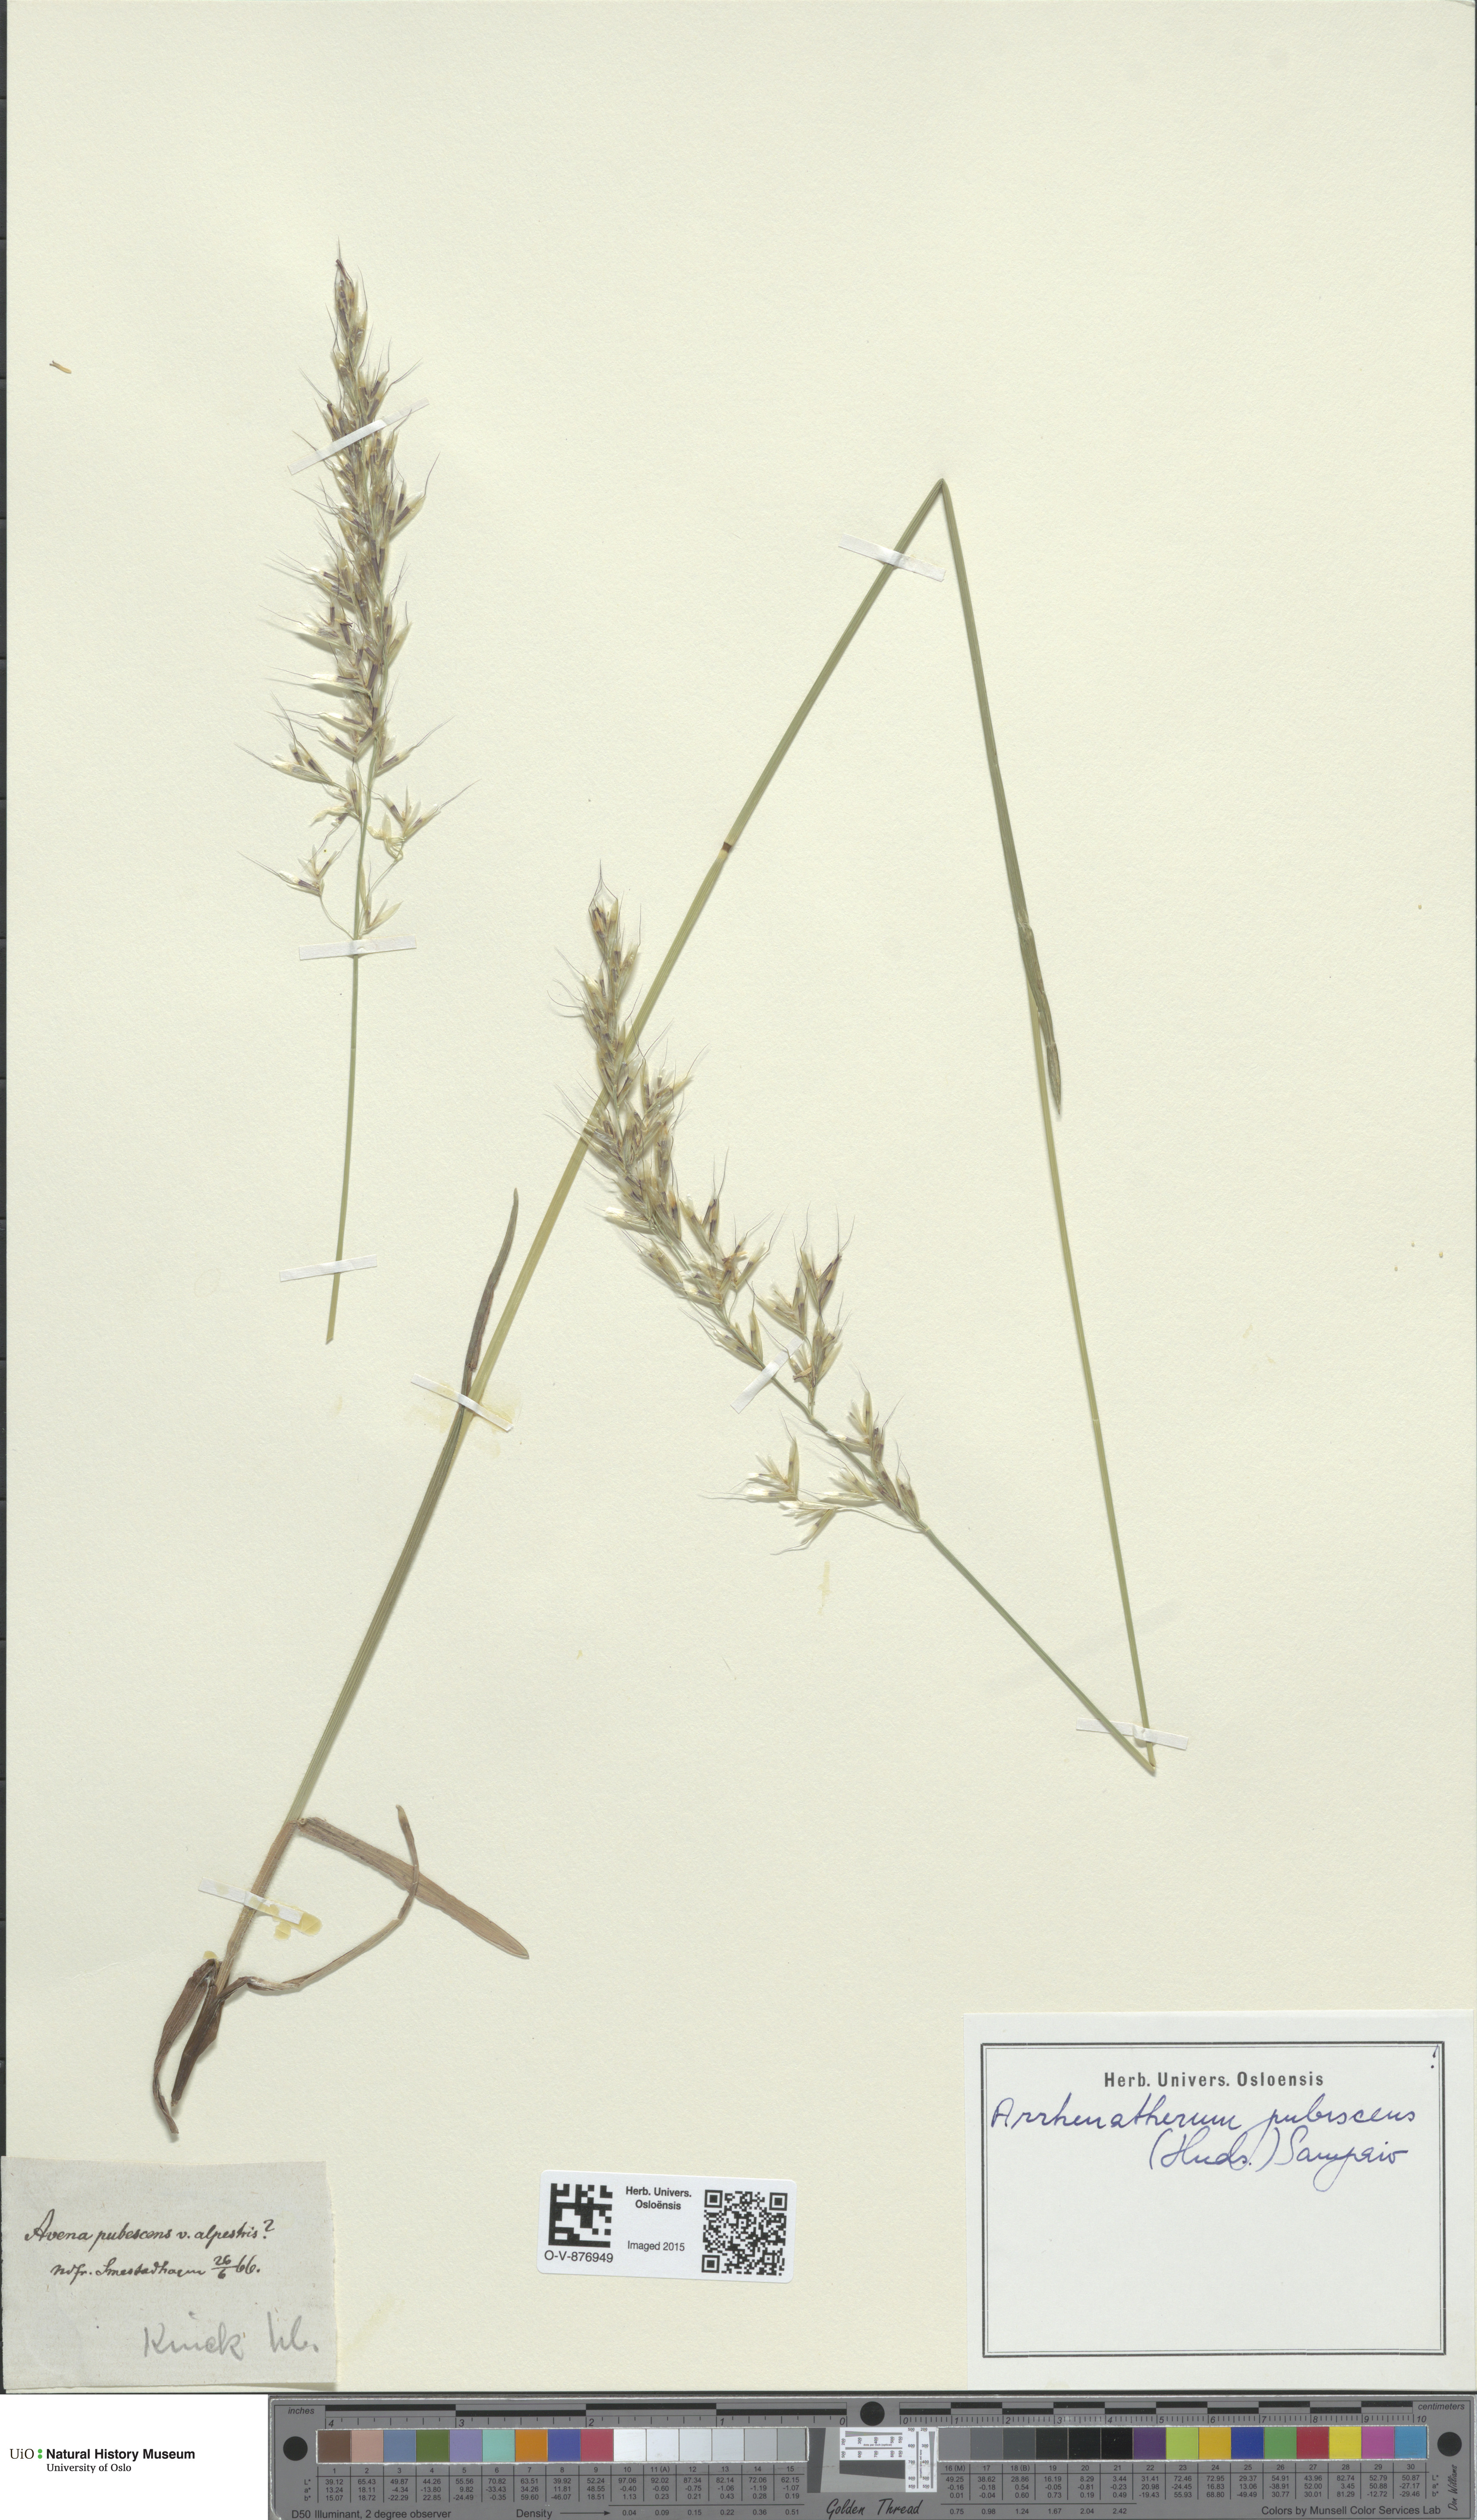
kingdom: Plantae
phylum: Tracheophyta
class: Liliopsida
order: Poales
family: Poaceae
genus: Avenula
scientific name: Avenula pubescens
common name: Downy alpine oatgrass
